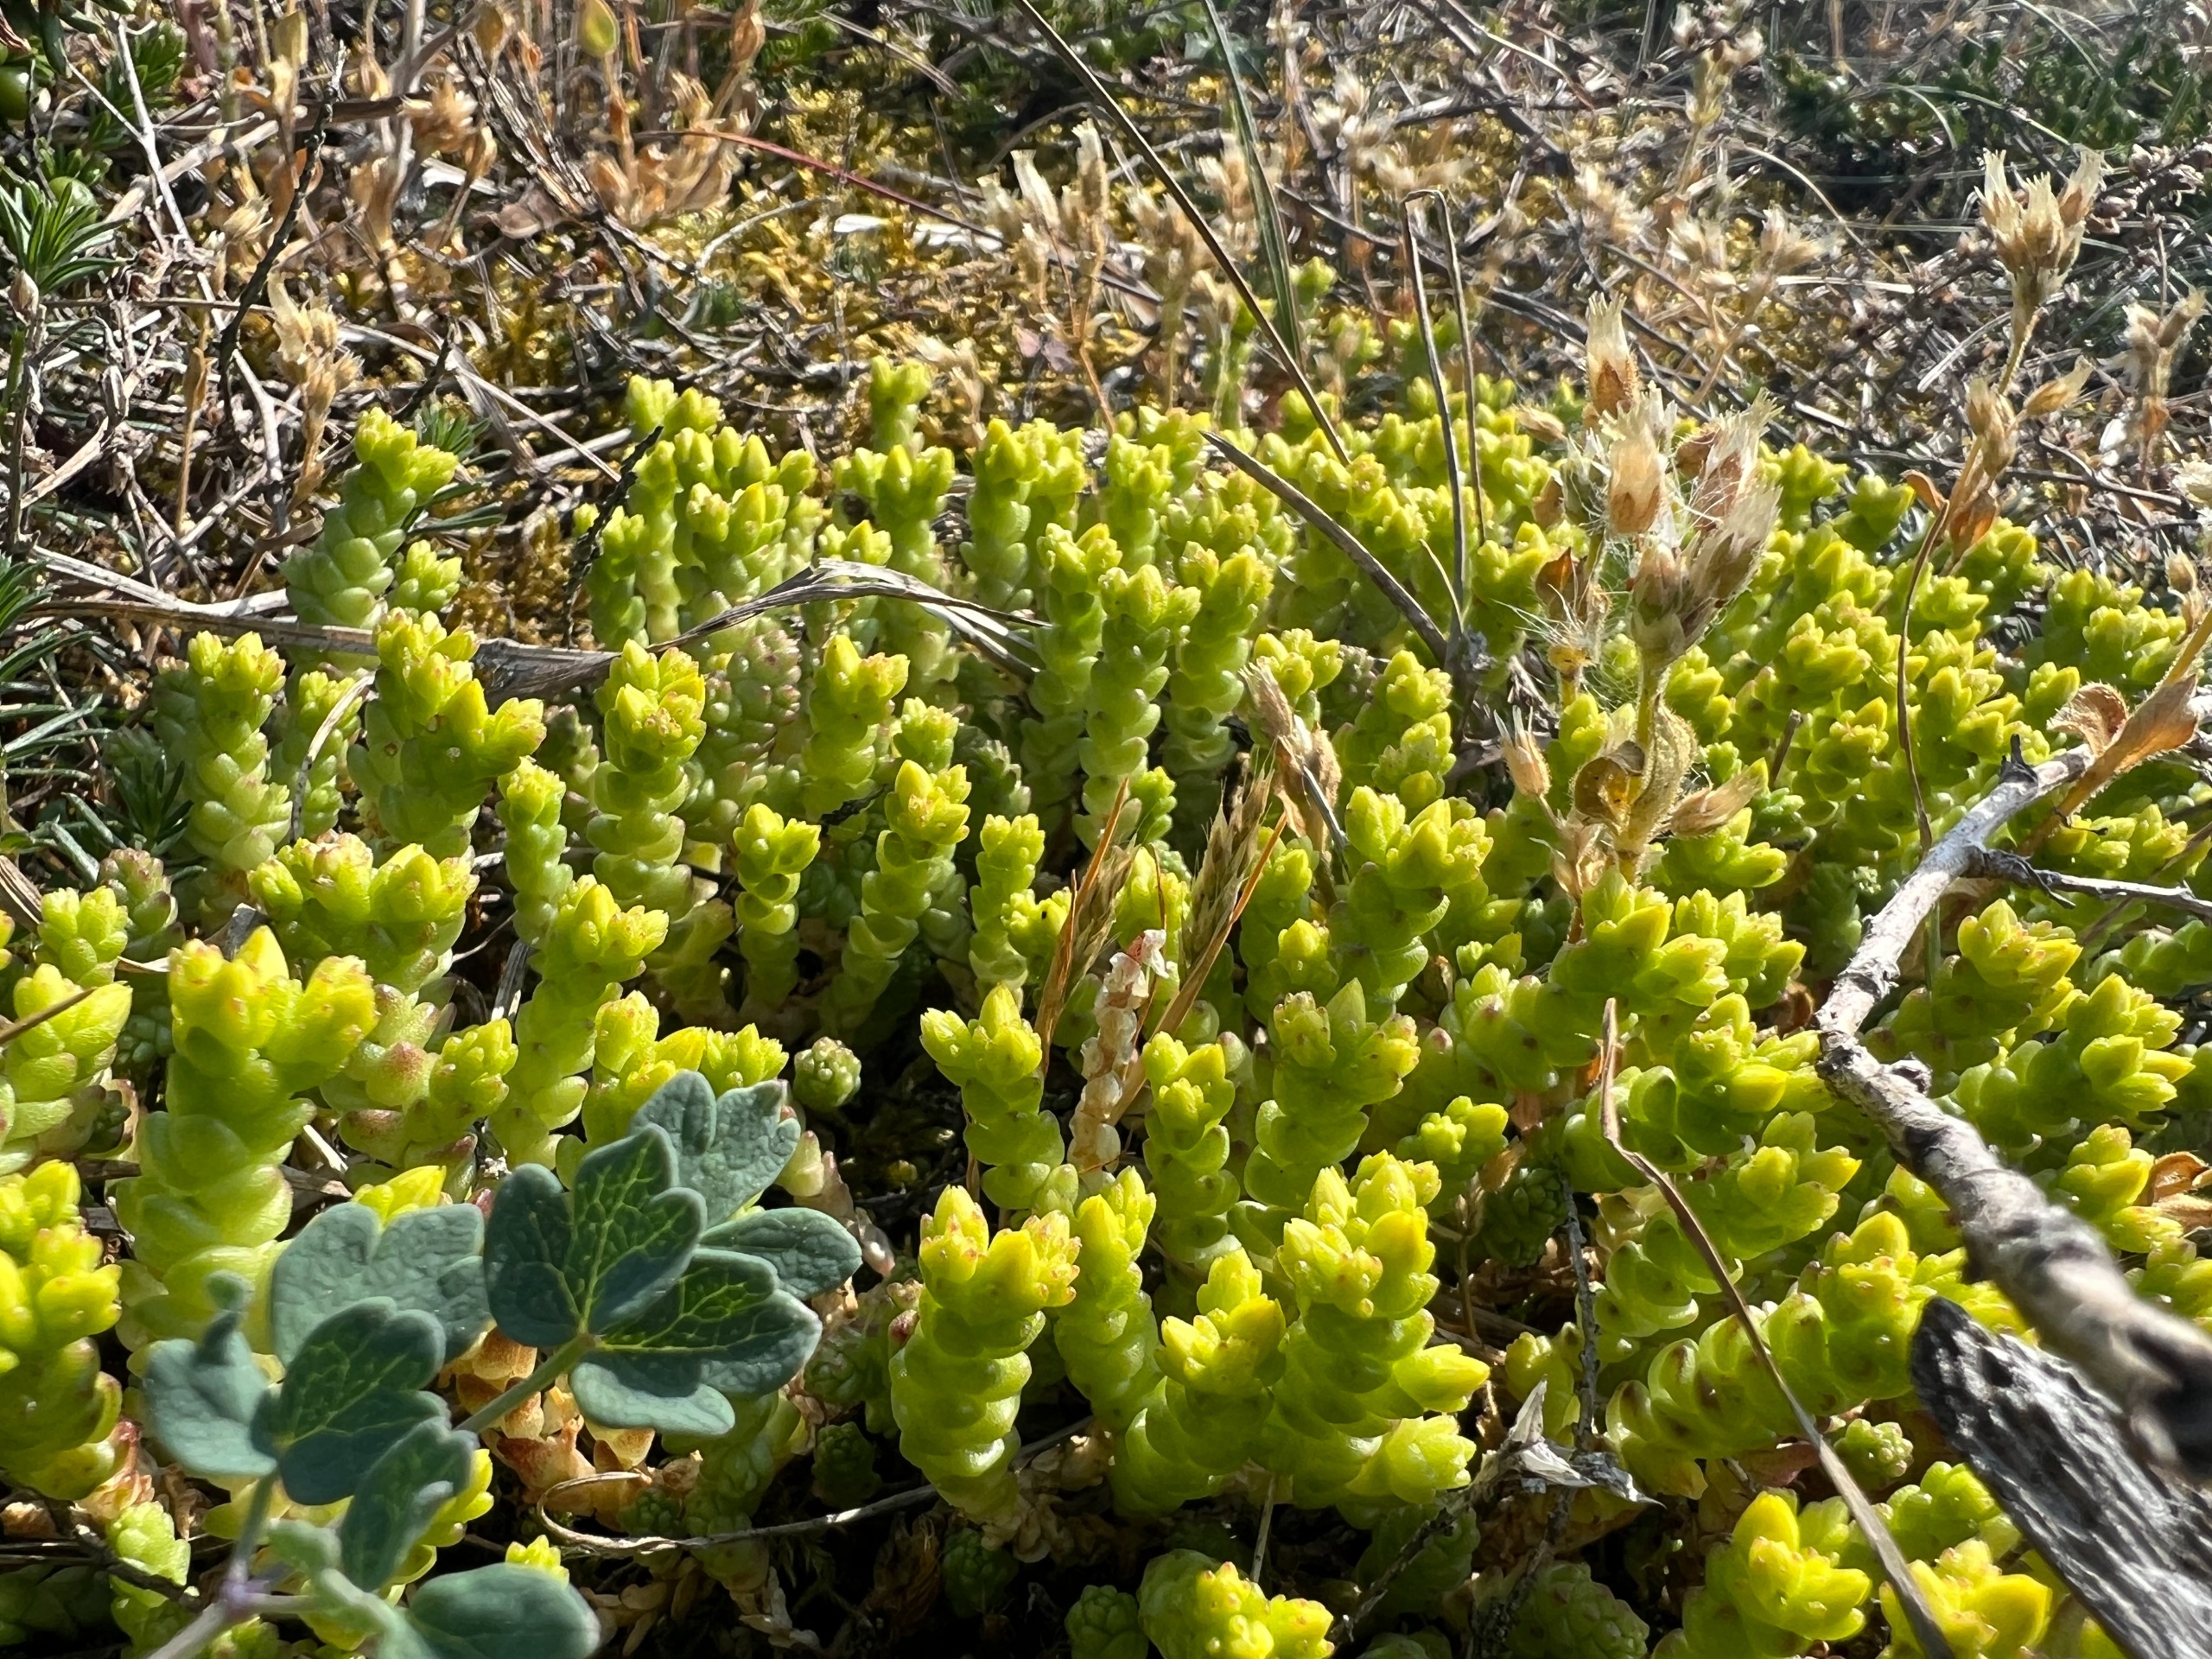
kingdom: Plantae
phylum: Tracheophyta
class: Magnoliopsida
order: Saxifragales
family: Crassulaceae
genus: Sedum
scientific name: Sedum acre
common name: Bidende stenurt
